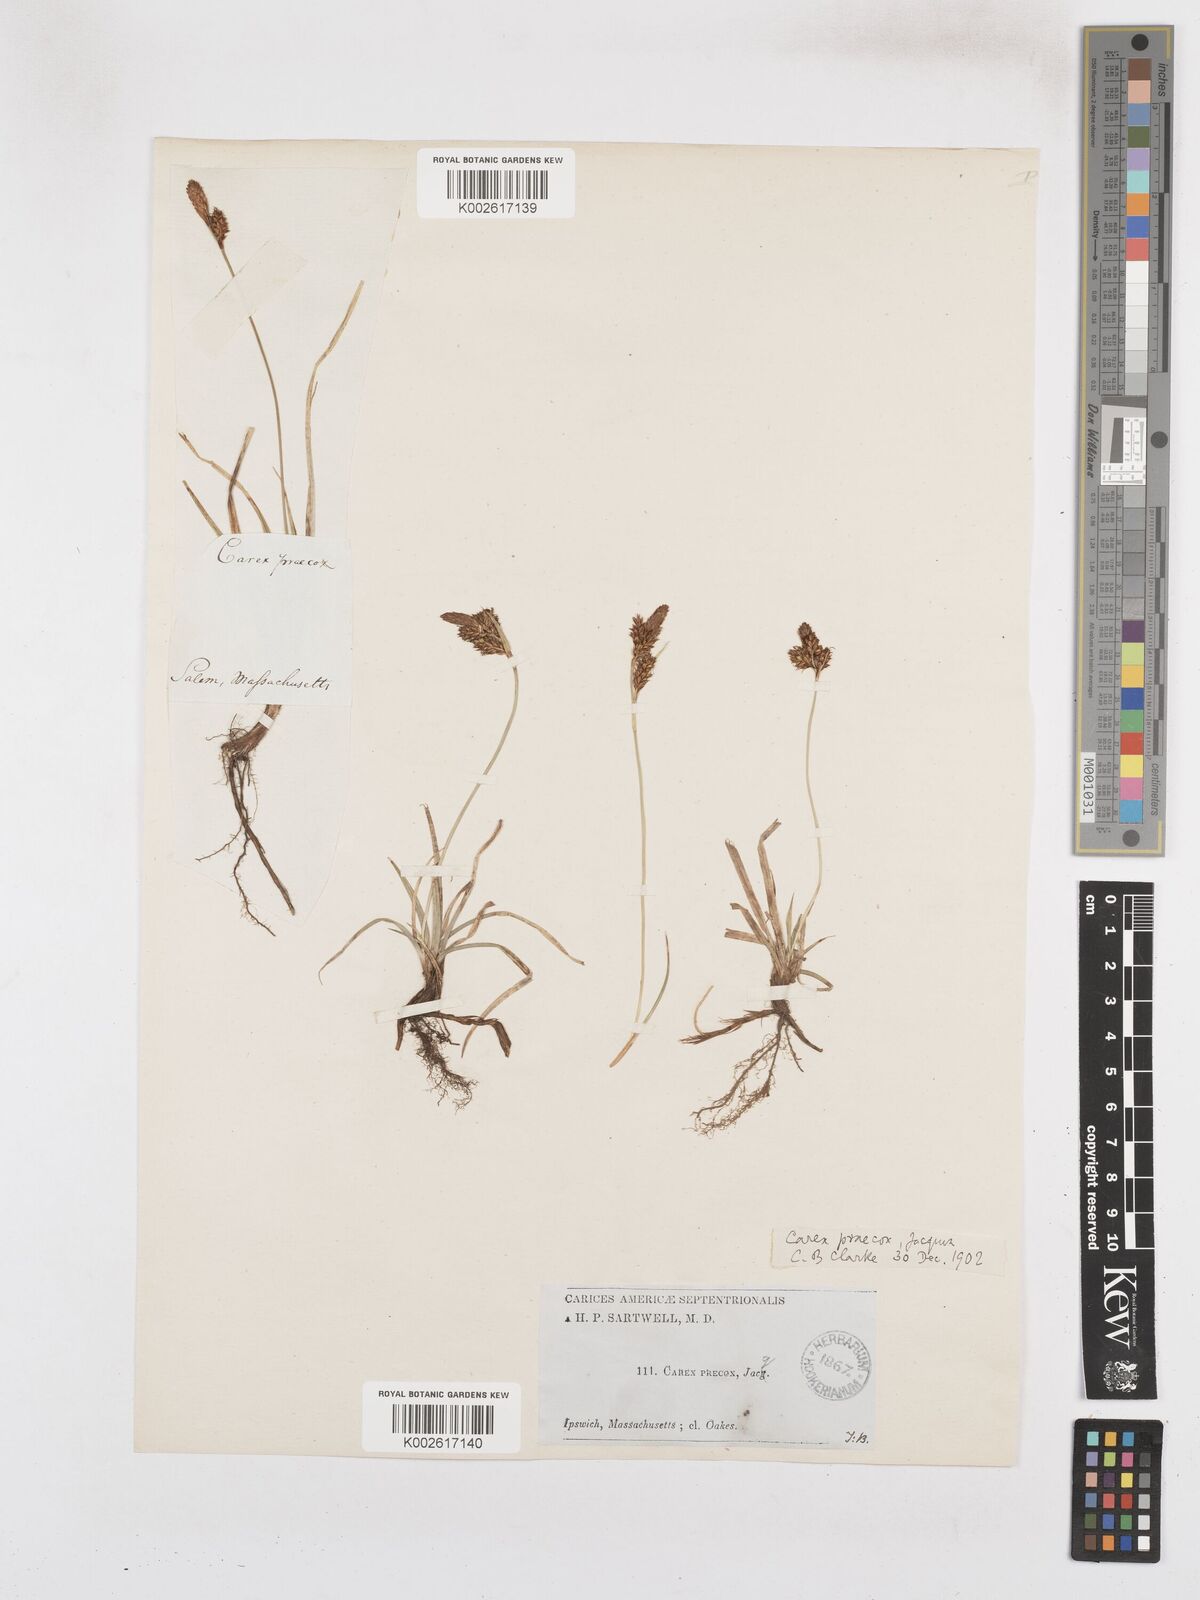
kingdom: Plantae
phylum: Tracheophyta
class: Liliopsida
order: Poales
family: Cyperaceae
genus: Carex
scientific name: Carex caryophyllea
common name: Spring sedge
